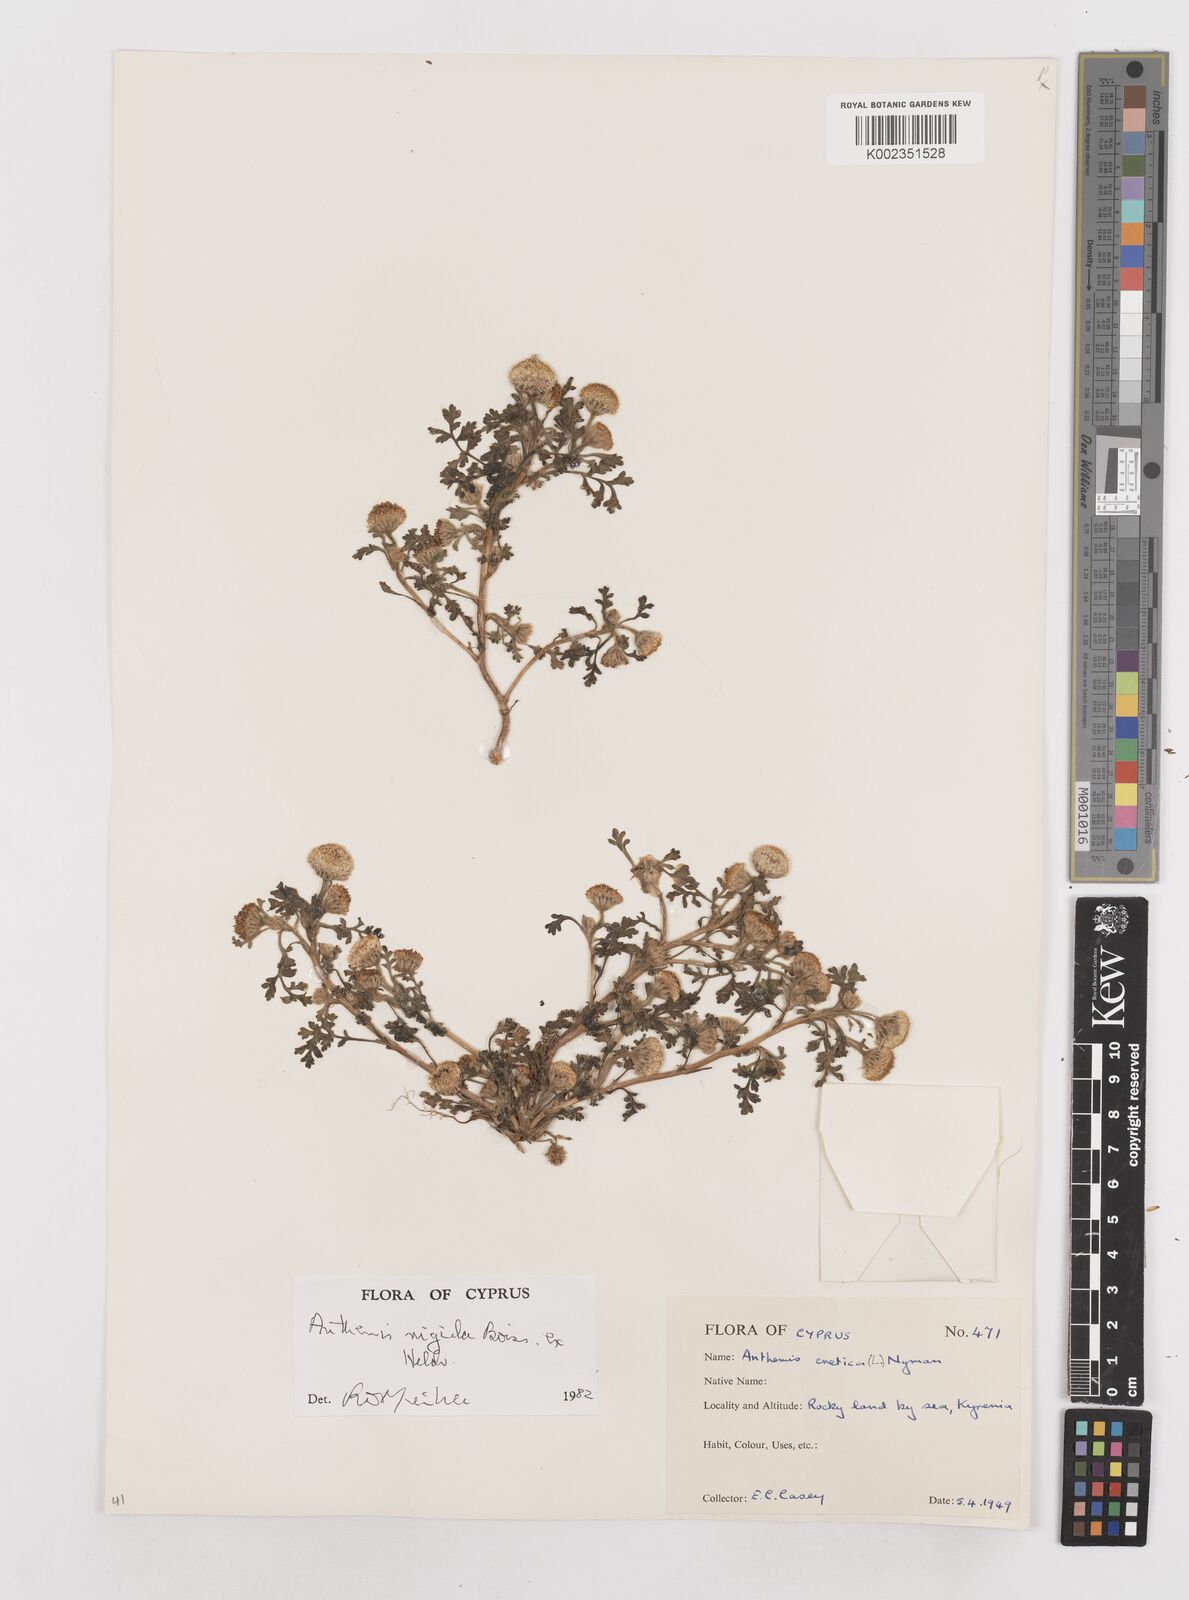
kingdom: Plantae
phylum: Tracheophyta
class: Magnoliopsida
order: Asterales
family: Asteraceae
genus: Anthemis
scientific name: Anthemis rigida
